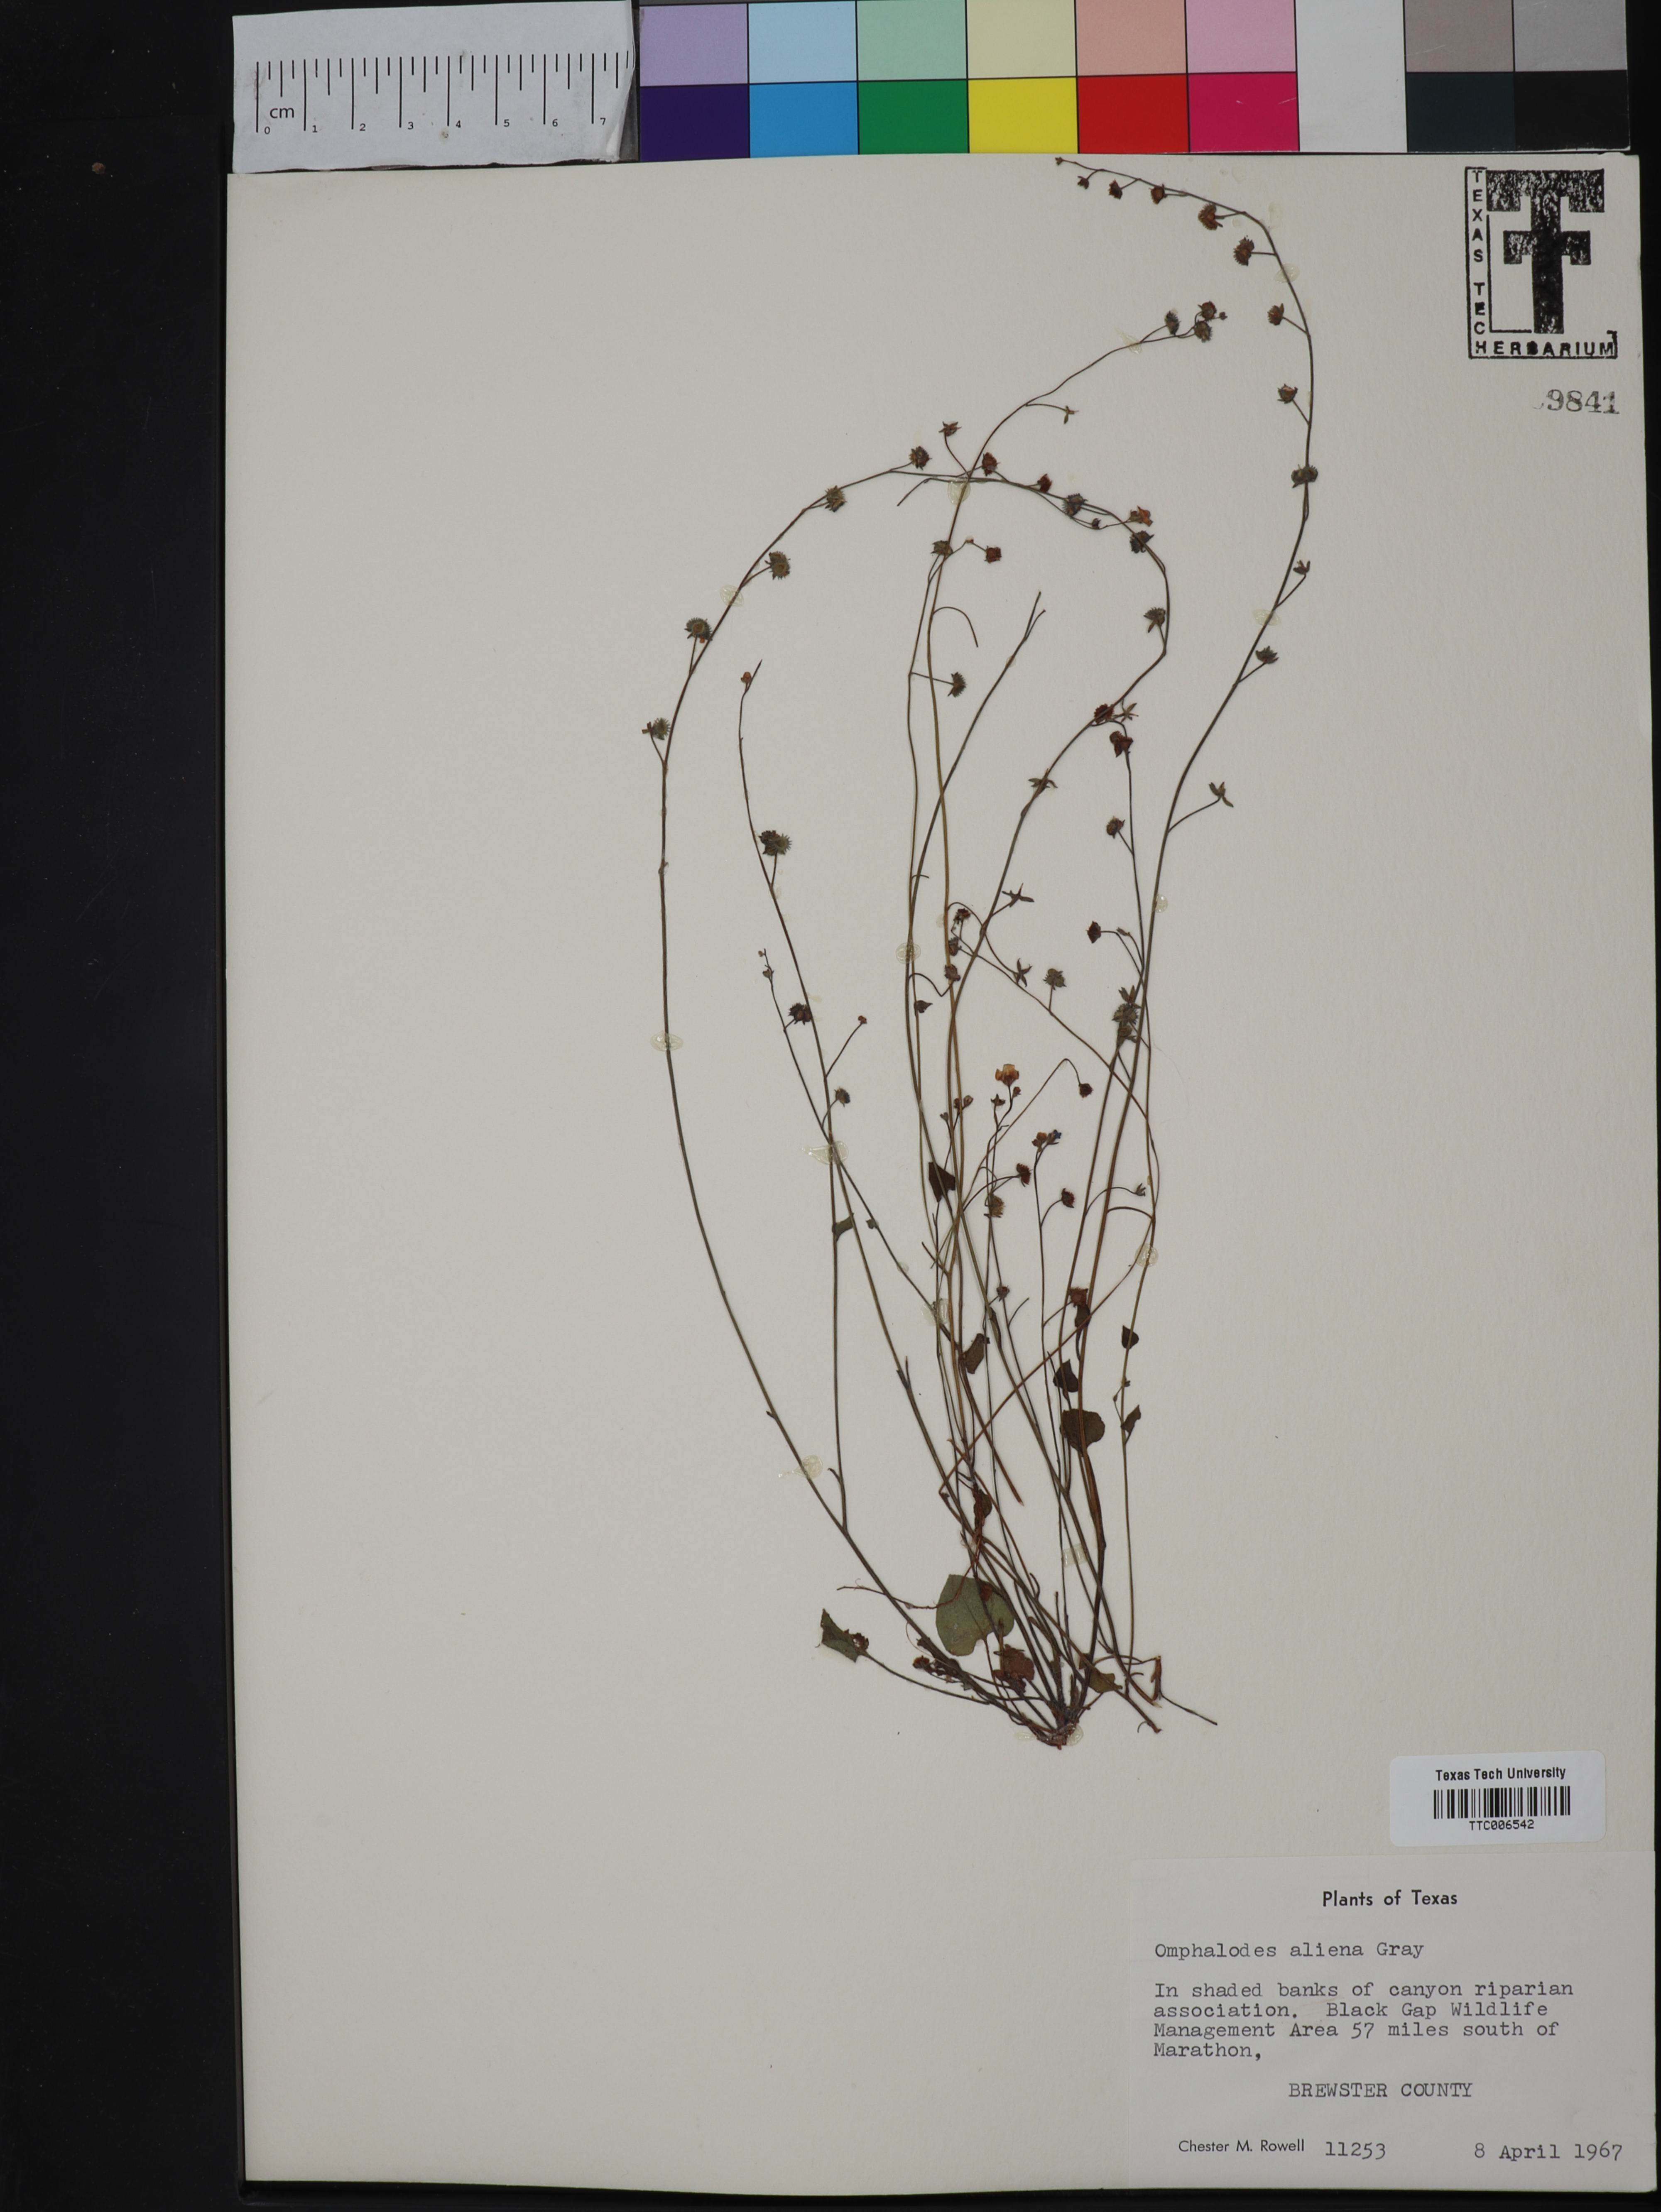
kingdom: Plantae
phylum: Tracheophyta
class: Magnoliopsida
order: Boraginales
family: Boraginaceae
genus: Omphalodes
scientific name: Omphalodes aliena
